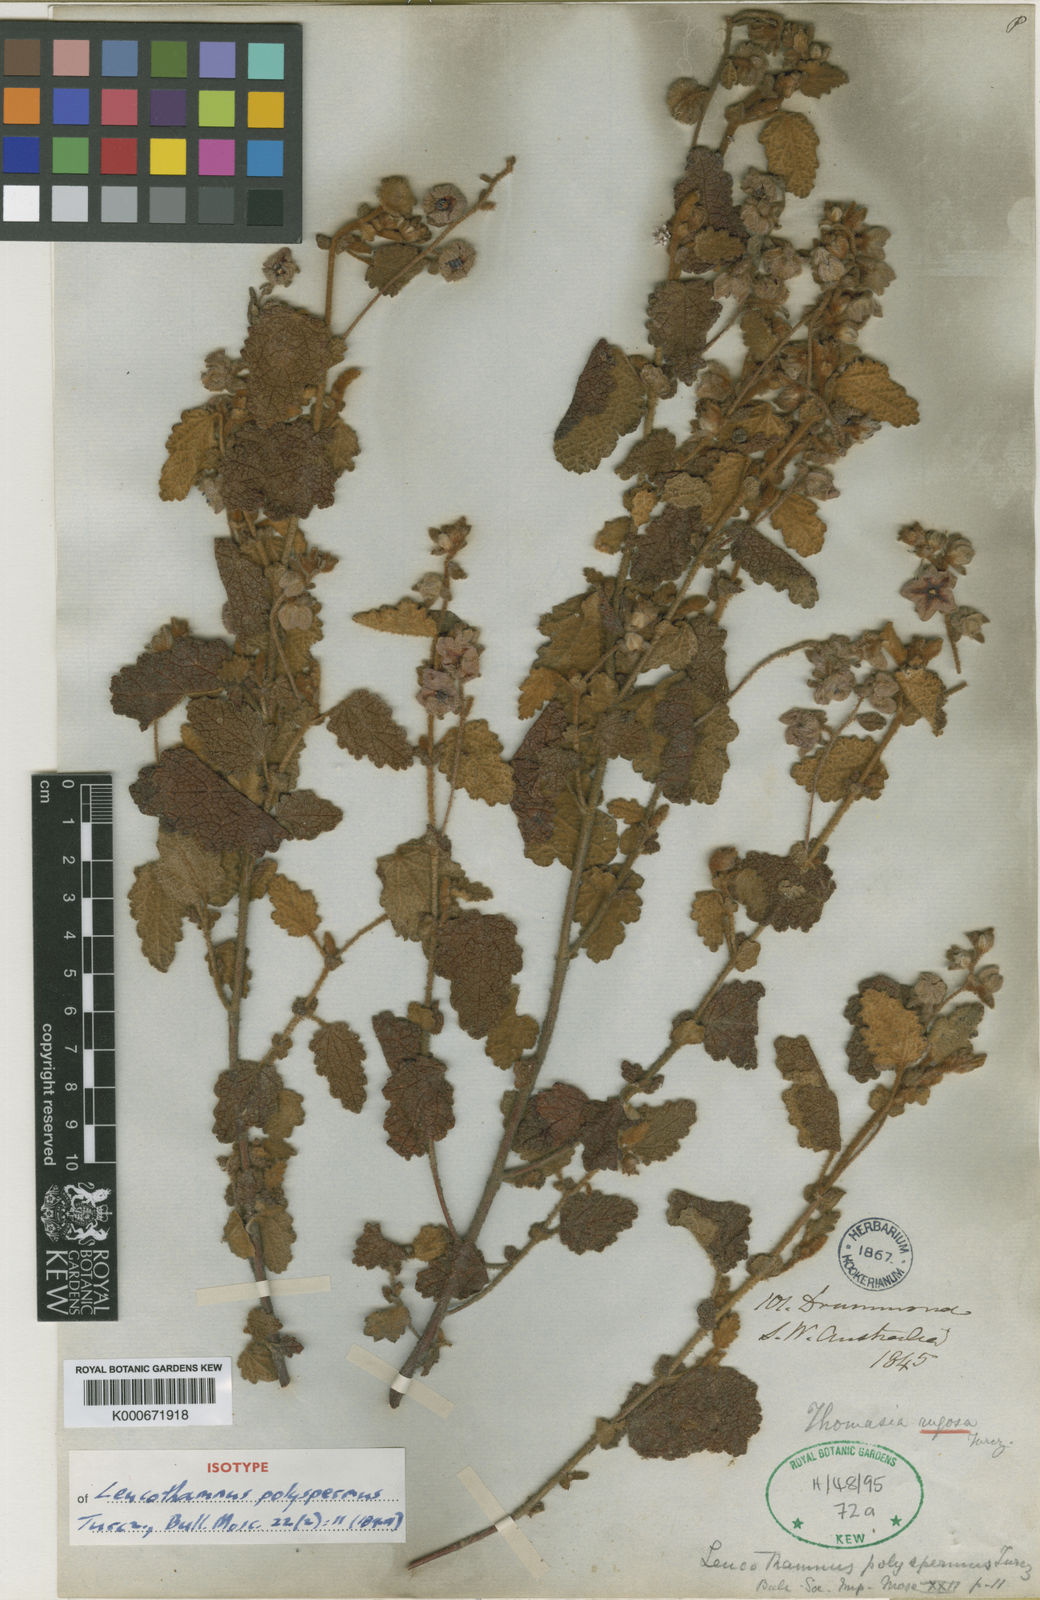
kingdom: Plantae
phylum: Tracheophyta
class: Magnoliopsida
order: Malvales
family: Malvaceae
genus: Thomasia
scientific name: Thomasia rugosa
